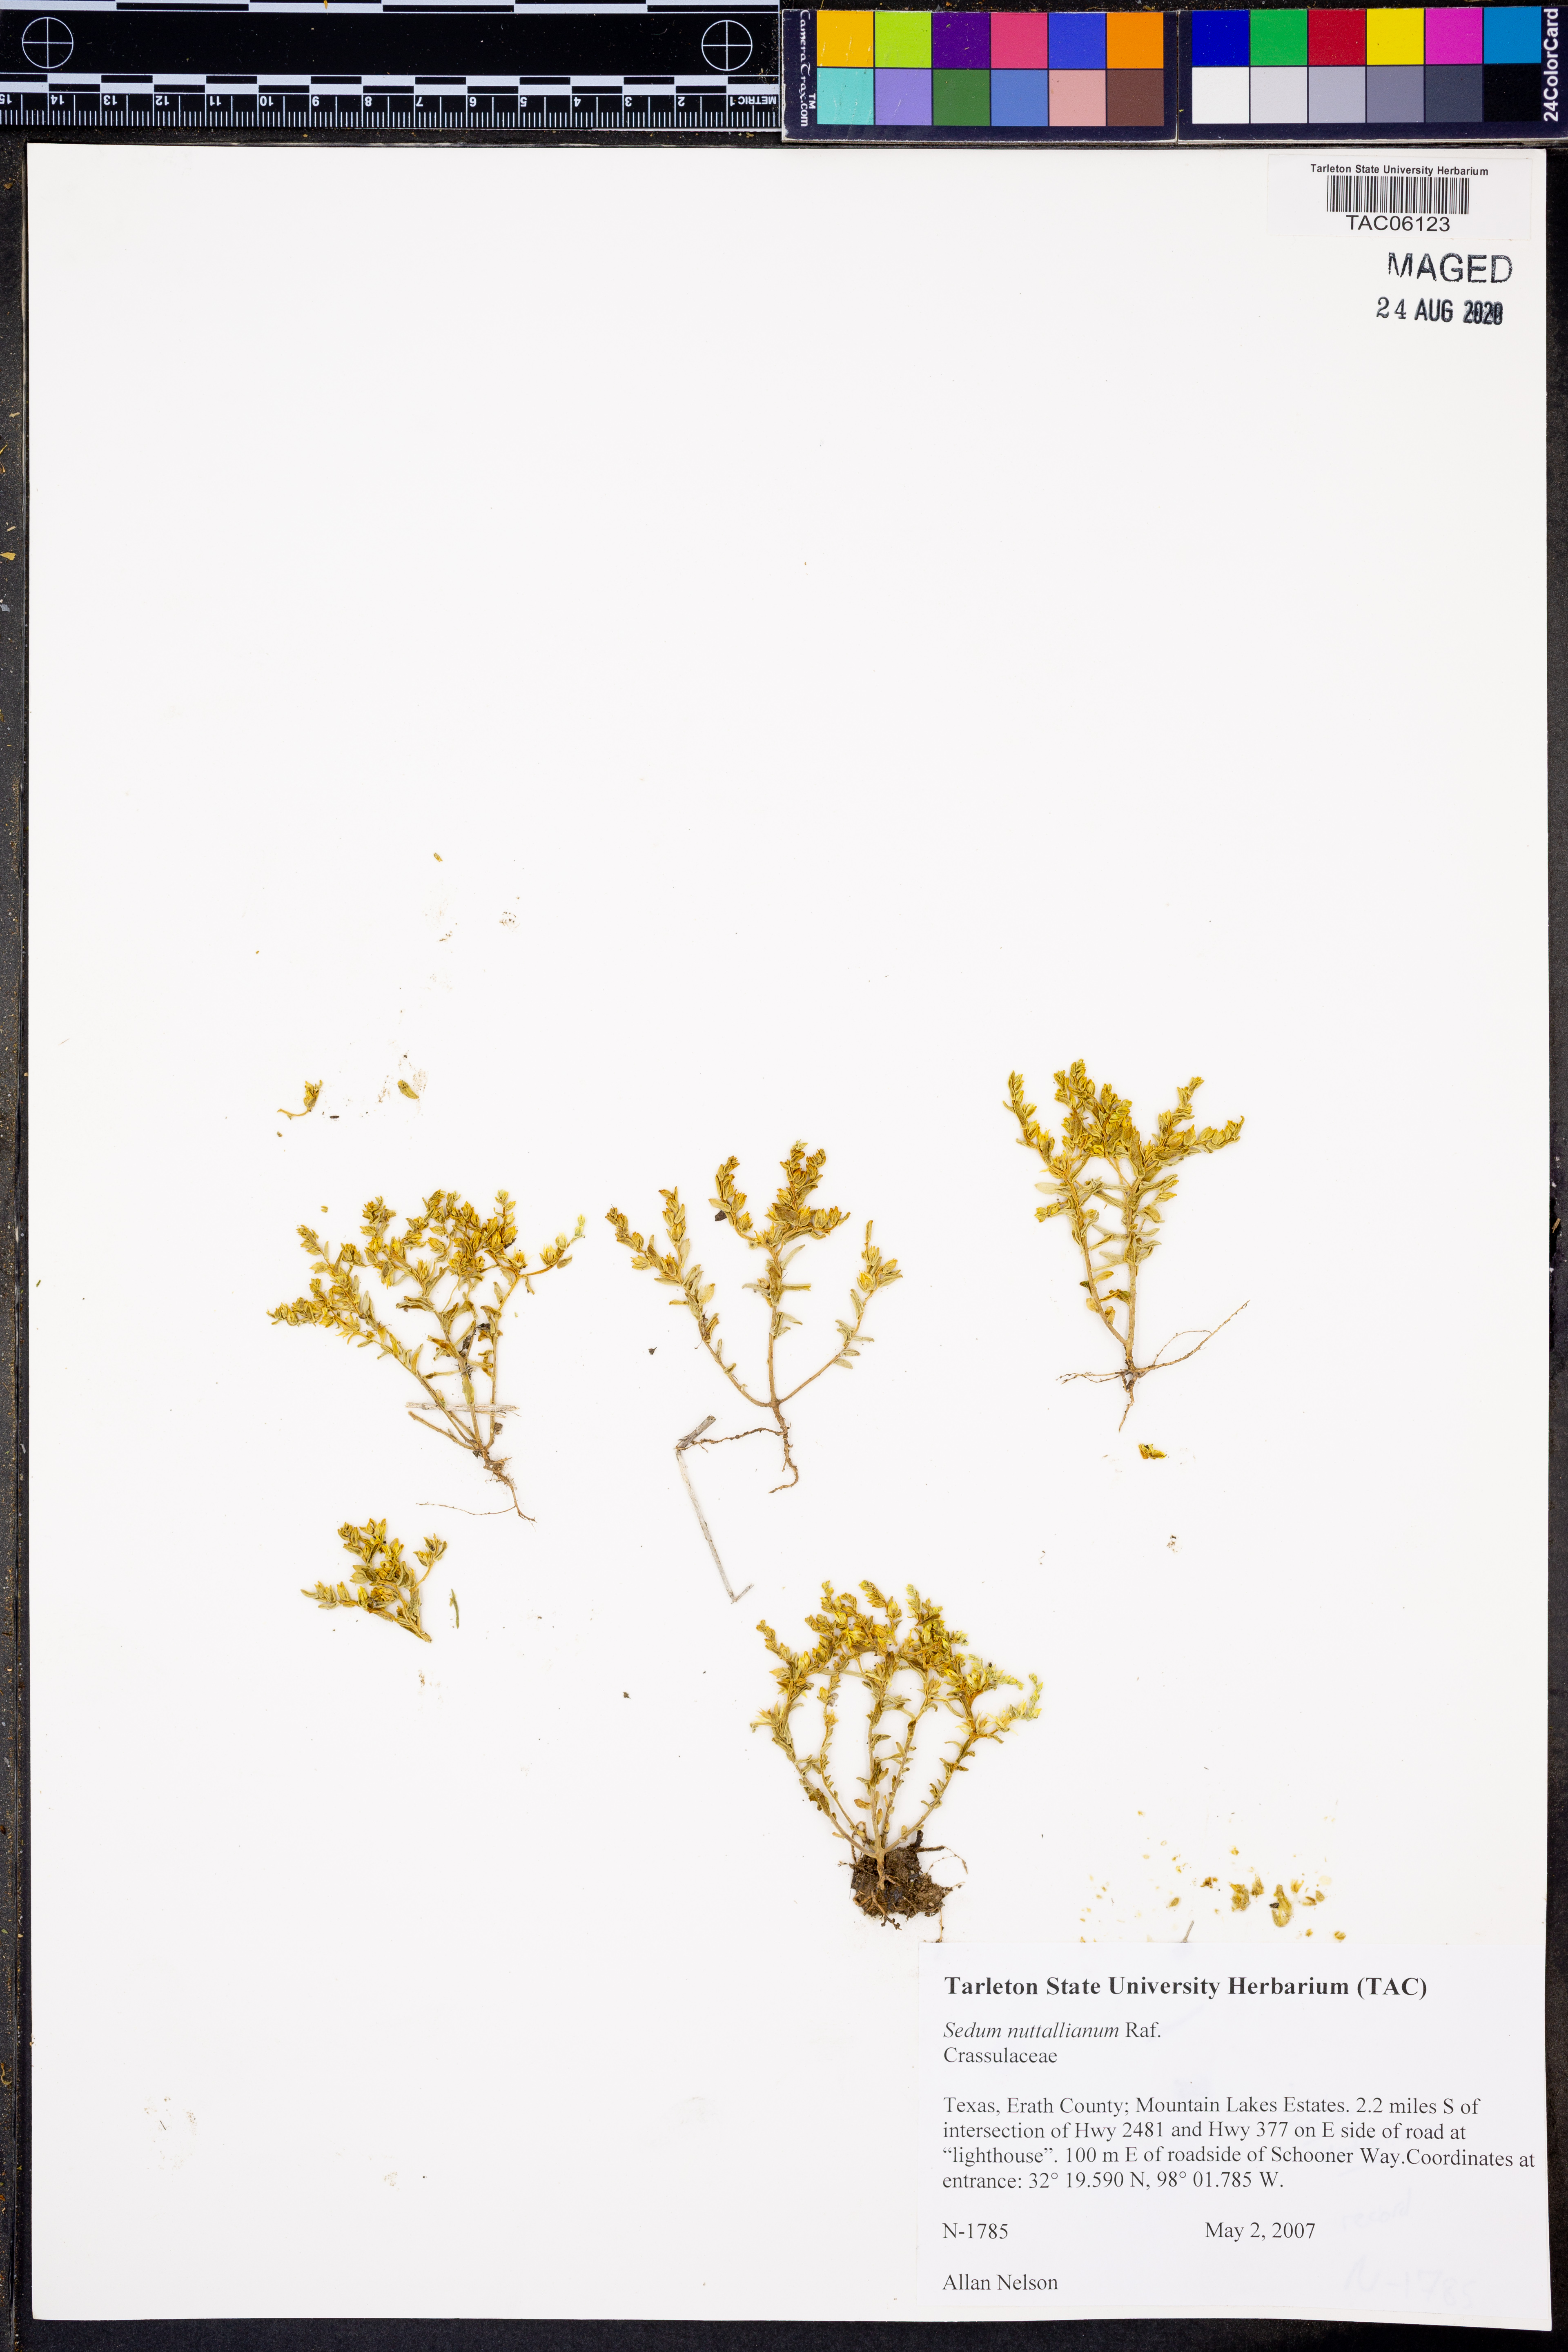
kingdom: Plantae
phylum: Tracheophyta
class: Magnoliopsida
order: Saxifragales
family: Crassulaceae
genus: Sedum
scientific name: Sedum nuttallii
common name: Yellow stonecrop
